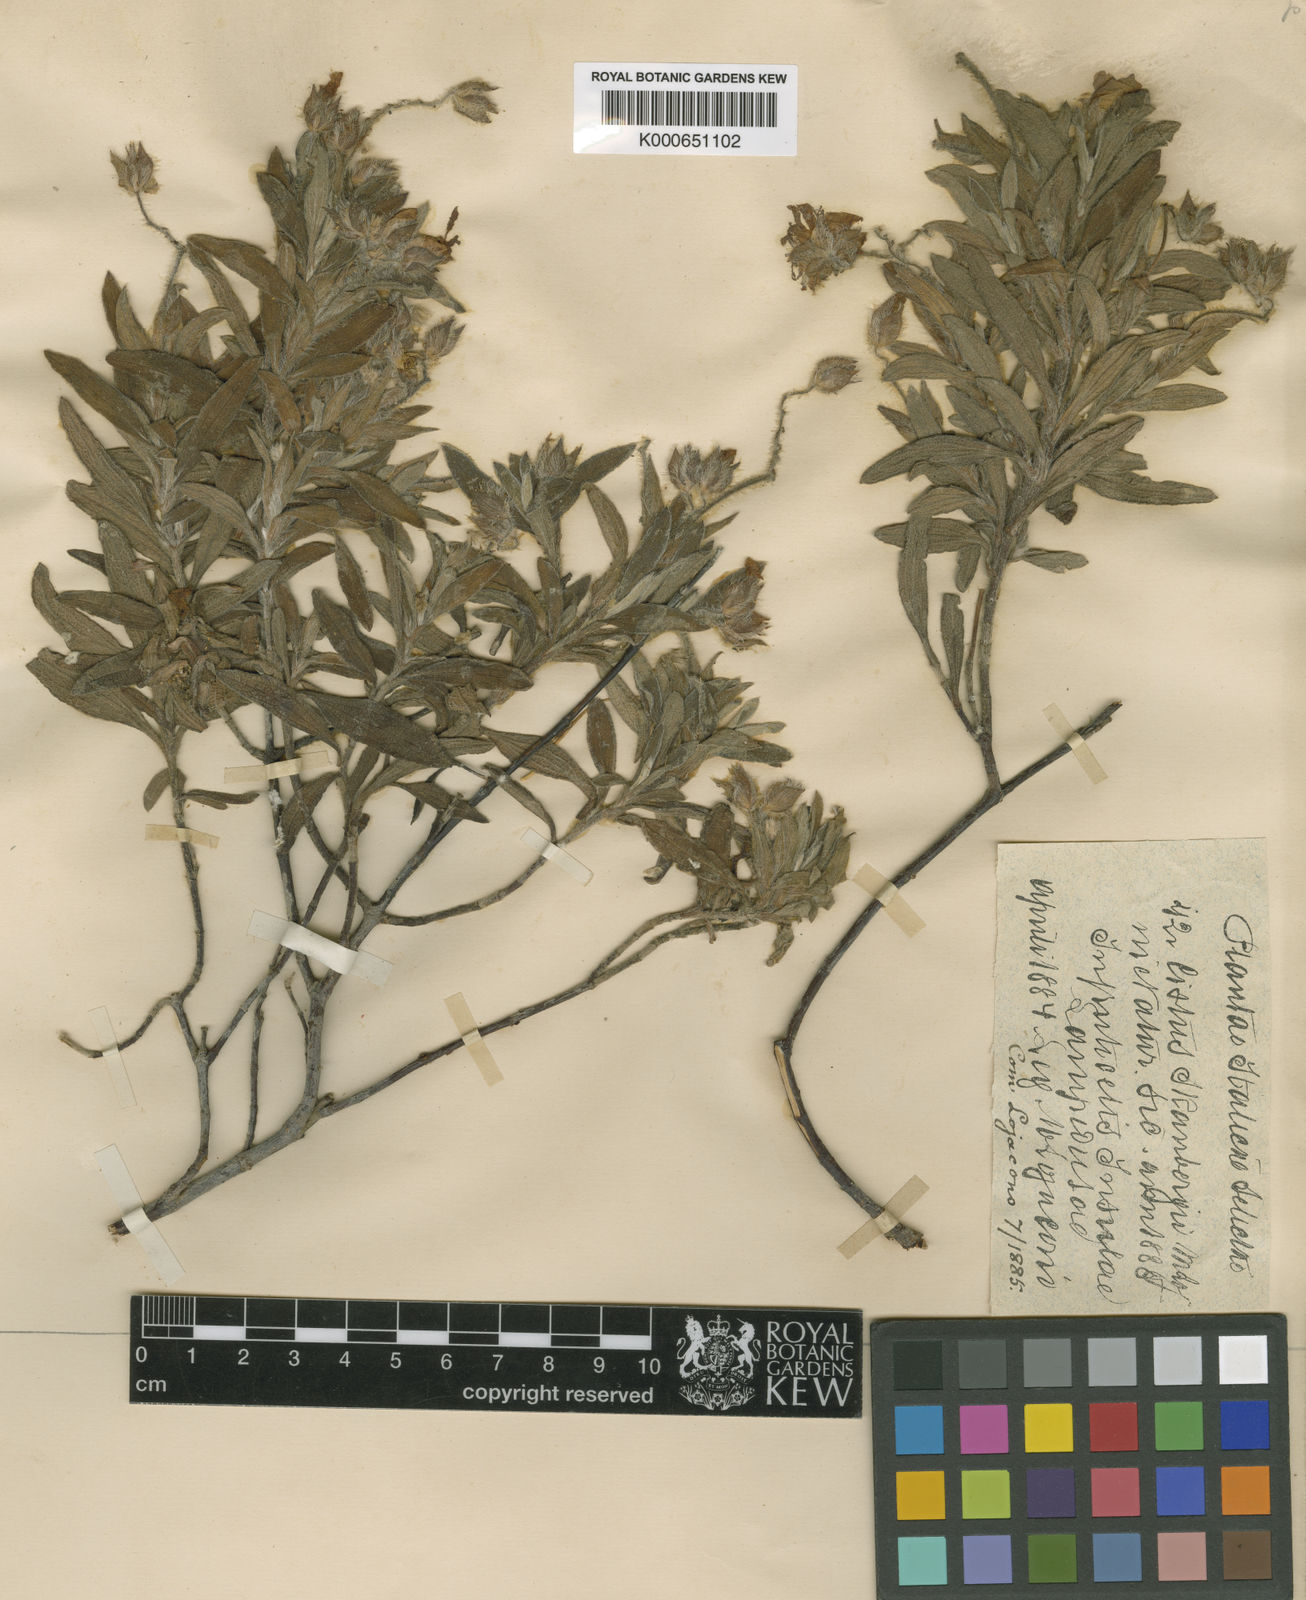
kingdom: Plantae
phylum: Tracheophyta
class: Magnoliopsida
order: Malvales
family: Cistaceae
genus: Cistus
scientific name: Cistus skanbergii
